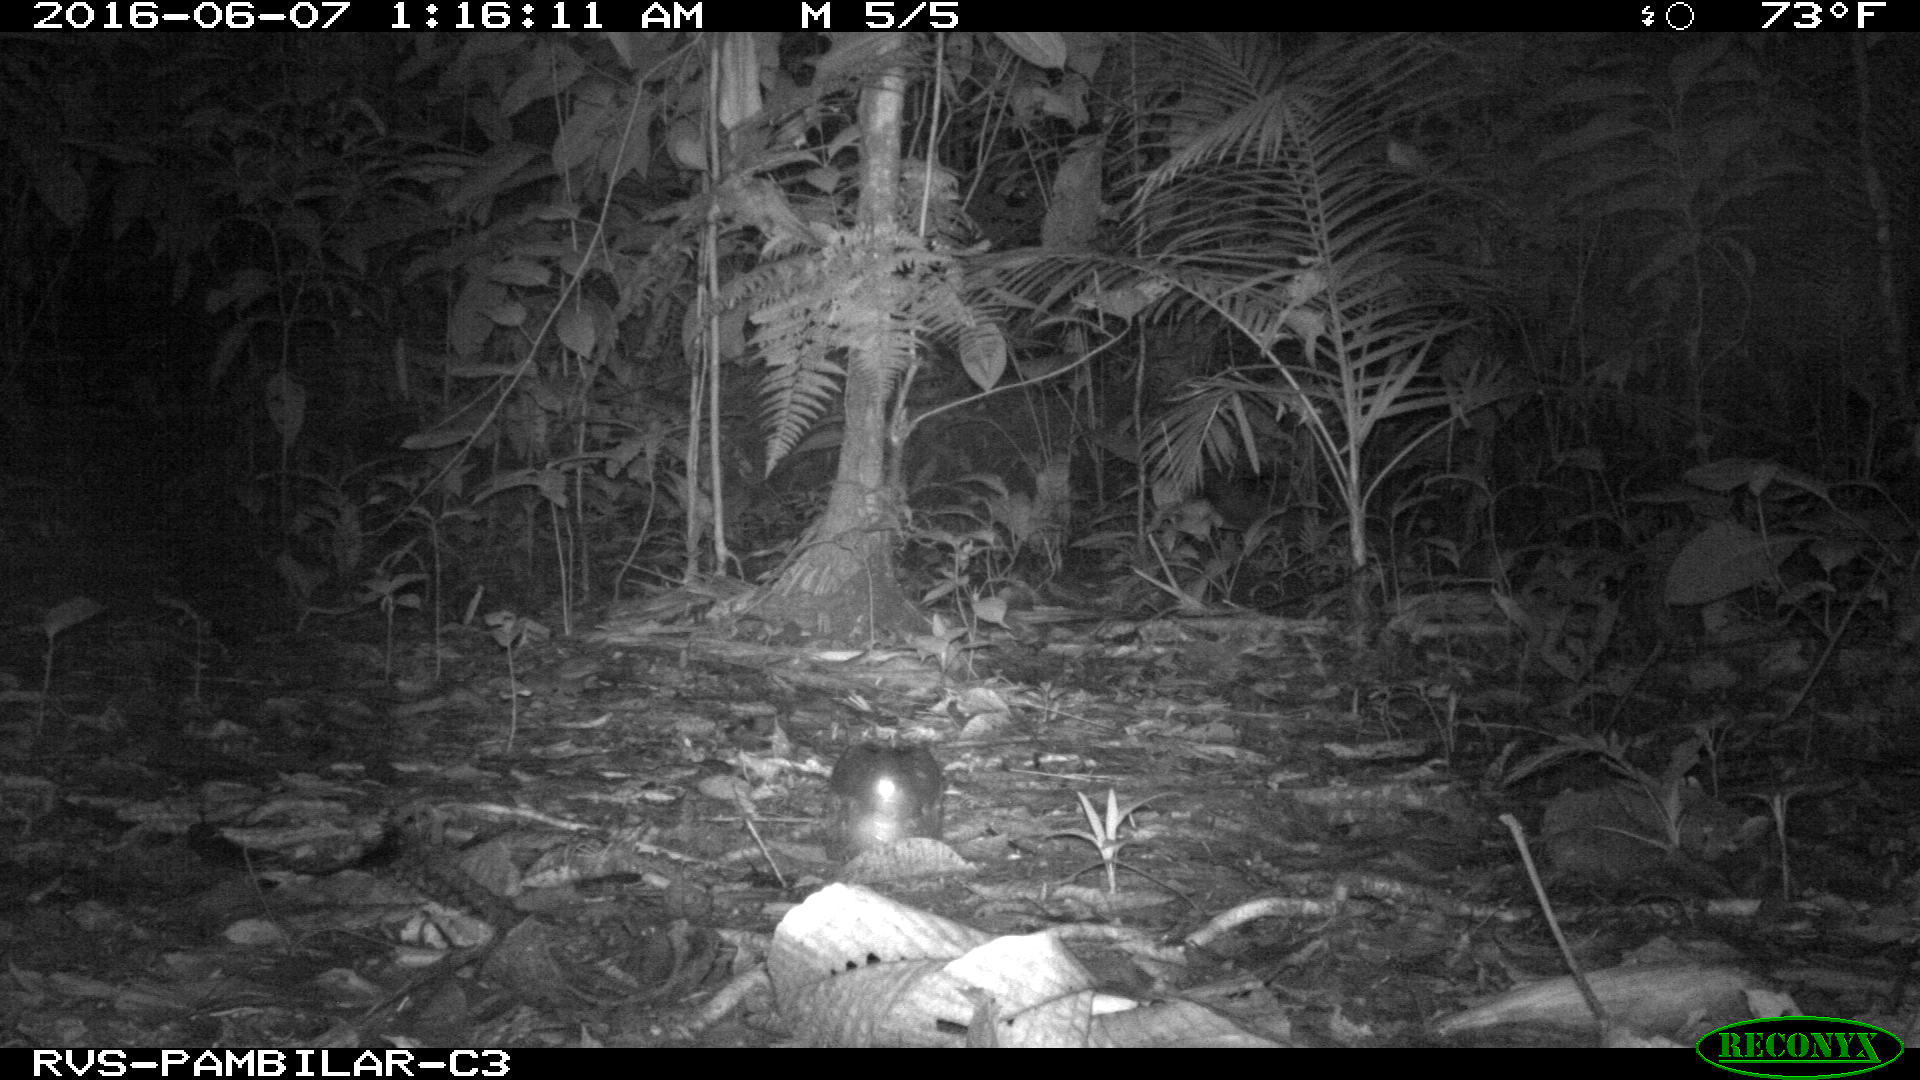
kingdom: Animalia
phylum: Chordata
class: Mammalia
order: Carnivora
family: Felidae
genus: Leopardus
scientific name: Leopardus pardalis
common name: Ocelot
